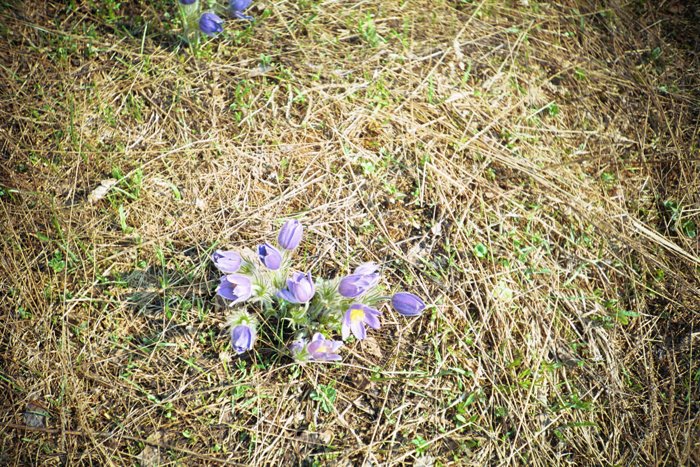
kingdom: Plantae
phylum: Tracheophyta
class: Magnoliopsida
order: Ranunculales
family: Ranunculaceae
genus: Pulsatilla
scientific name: Pulsatilla patens
